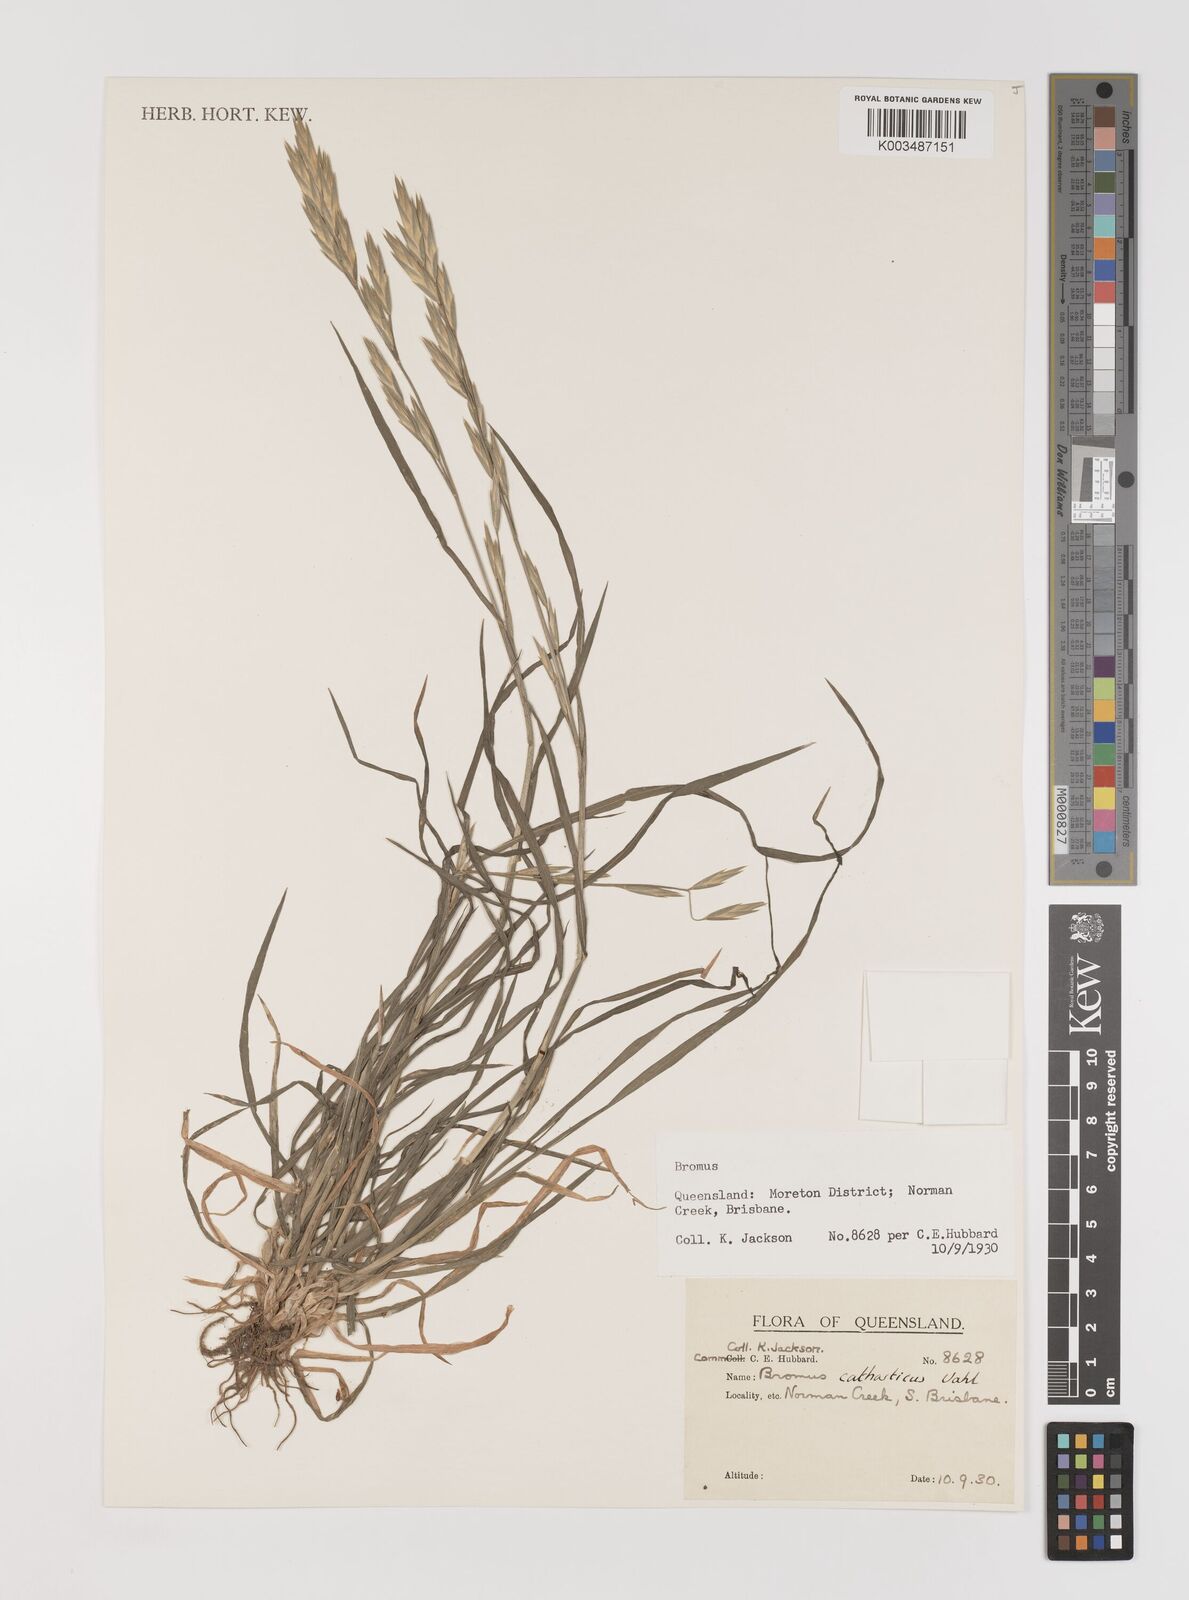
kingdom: Plantae
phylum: Tracheophyta
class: Liliopsida
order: Poales
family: Poaceae
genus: Bromus
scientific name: Bromus catharticus
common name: Rescuegrass
